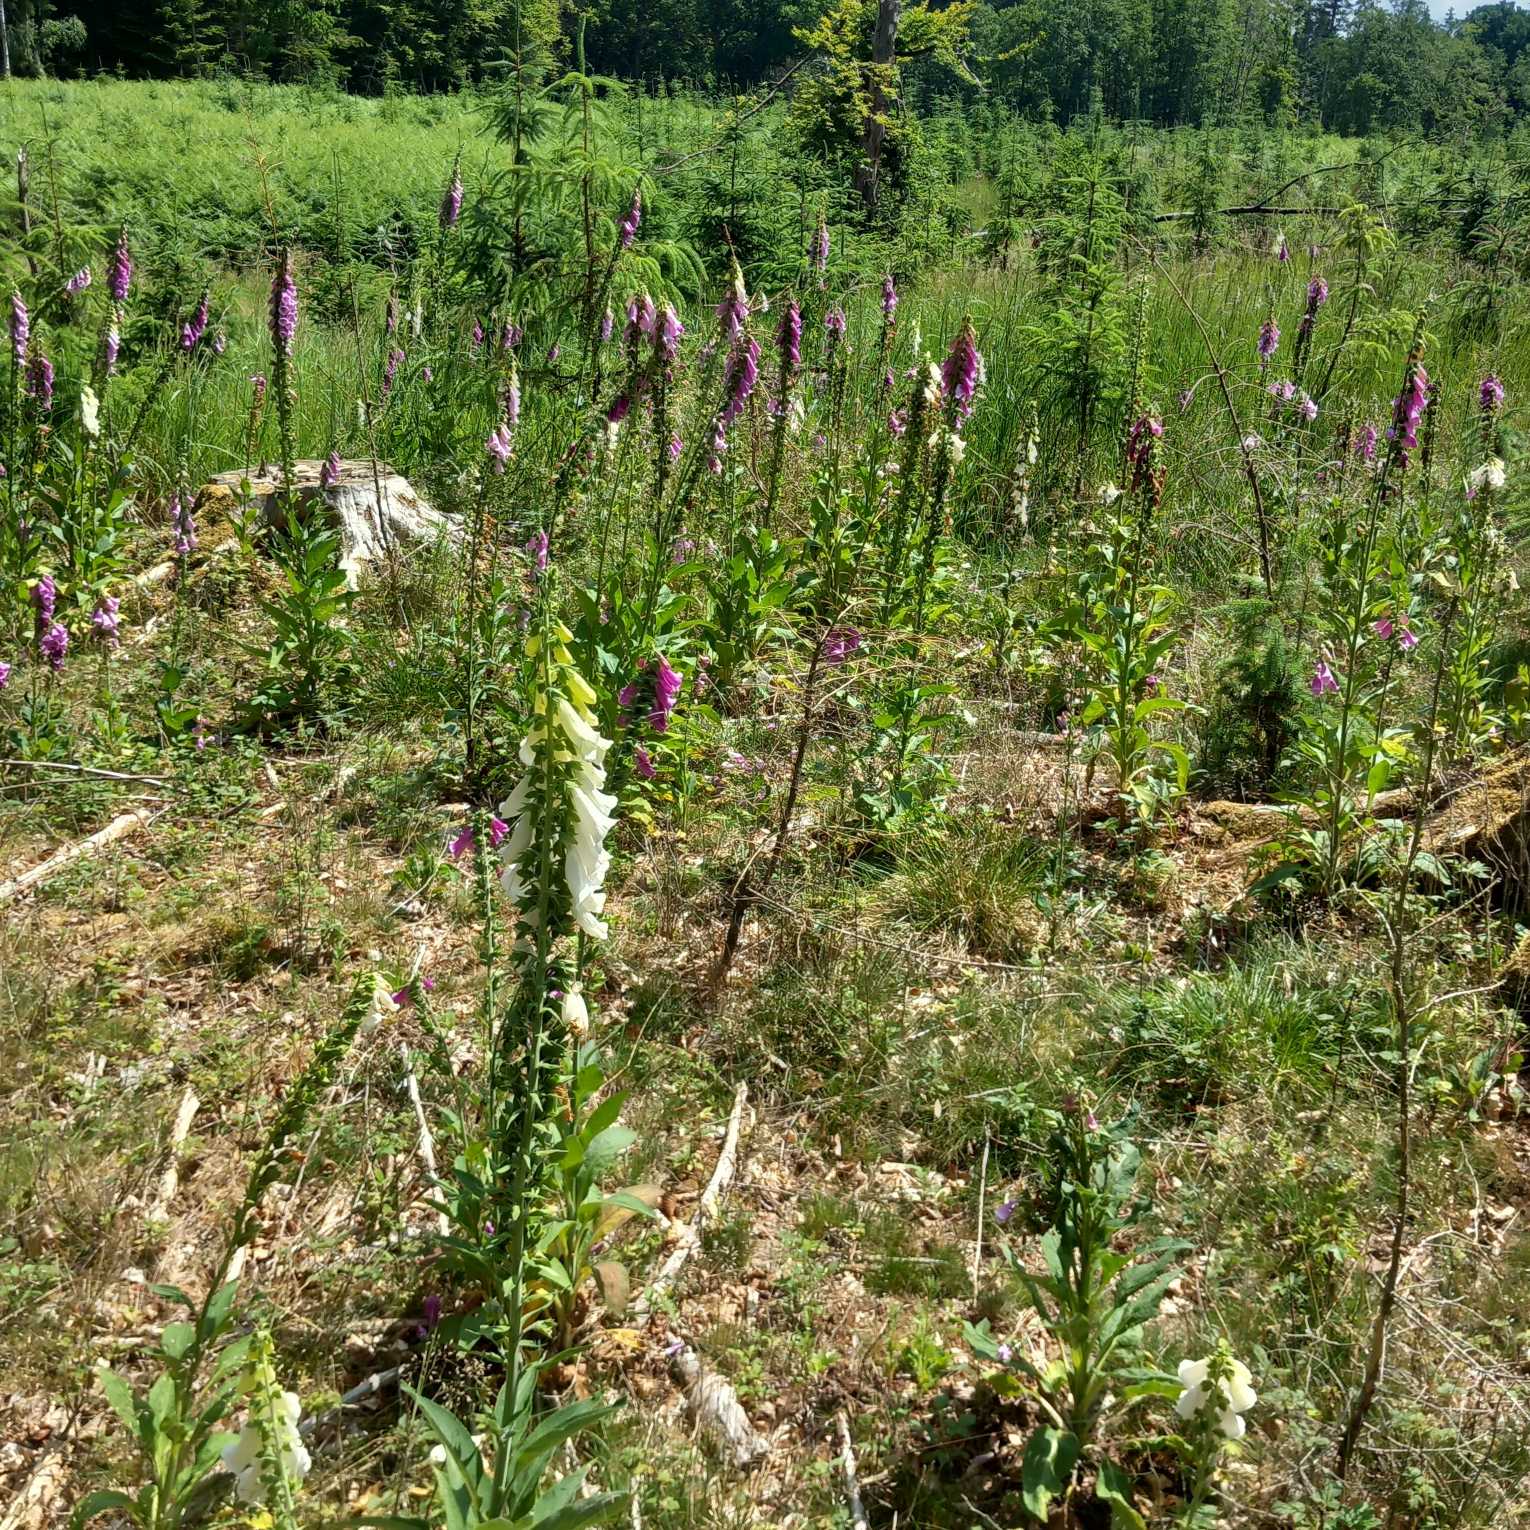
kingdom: Plantae
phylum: Tracheophyta
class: Magnoliopsida
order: Lamiales
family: Plantaginaceae
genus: Digitalis
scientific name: Digitalis purpurea
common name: Almindelig fingerbøl
